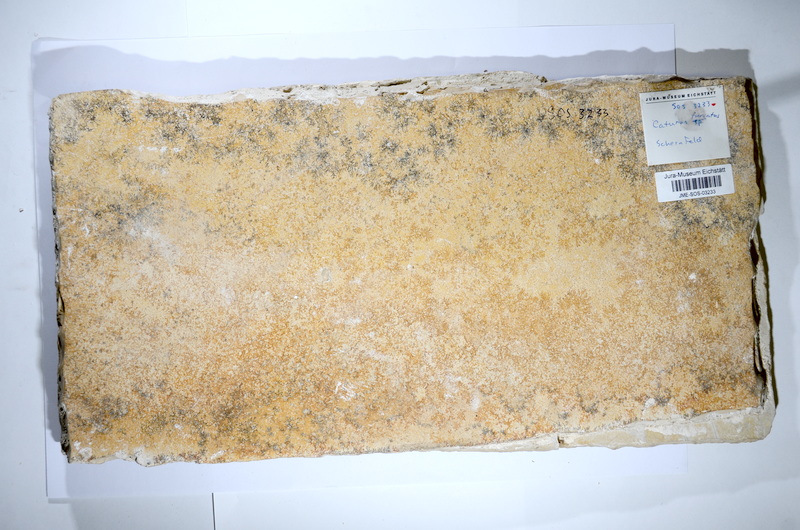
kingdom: Animalia
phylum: Chordata
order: Amiiformes
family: Caturidae
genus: Caturus
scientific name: Caturus furcatus
